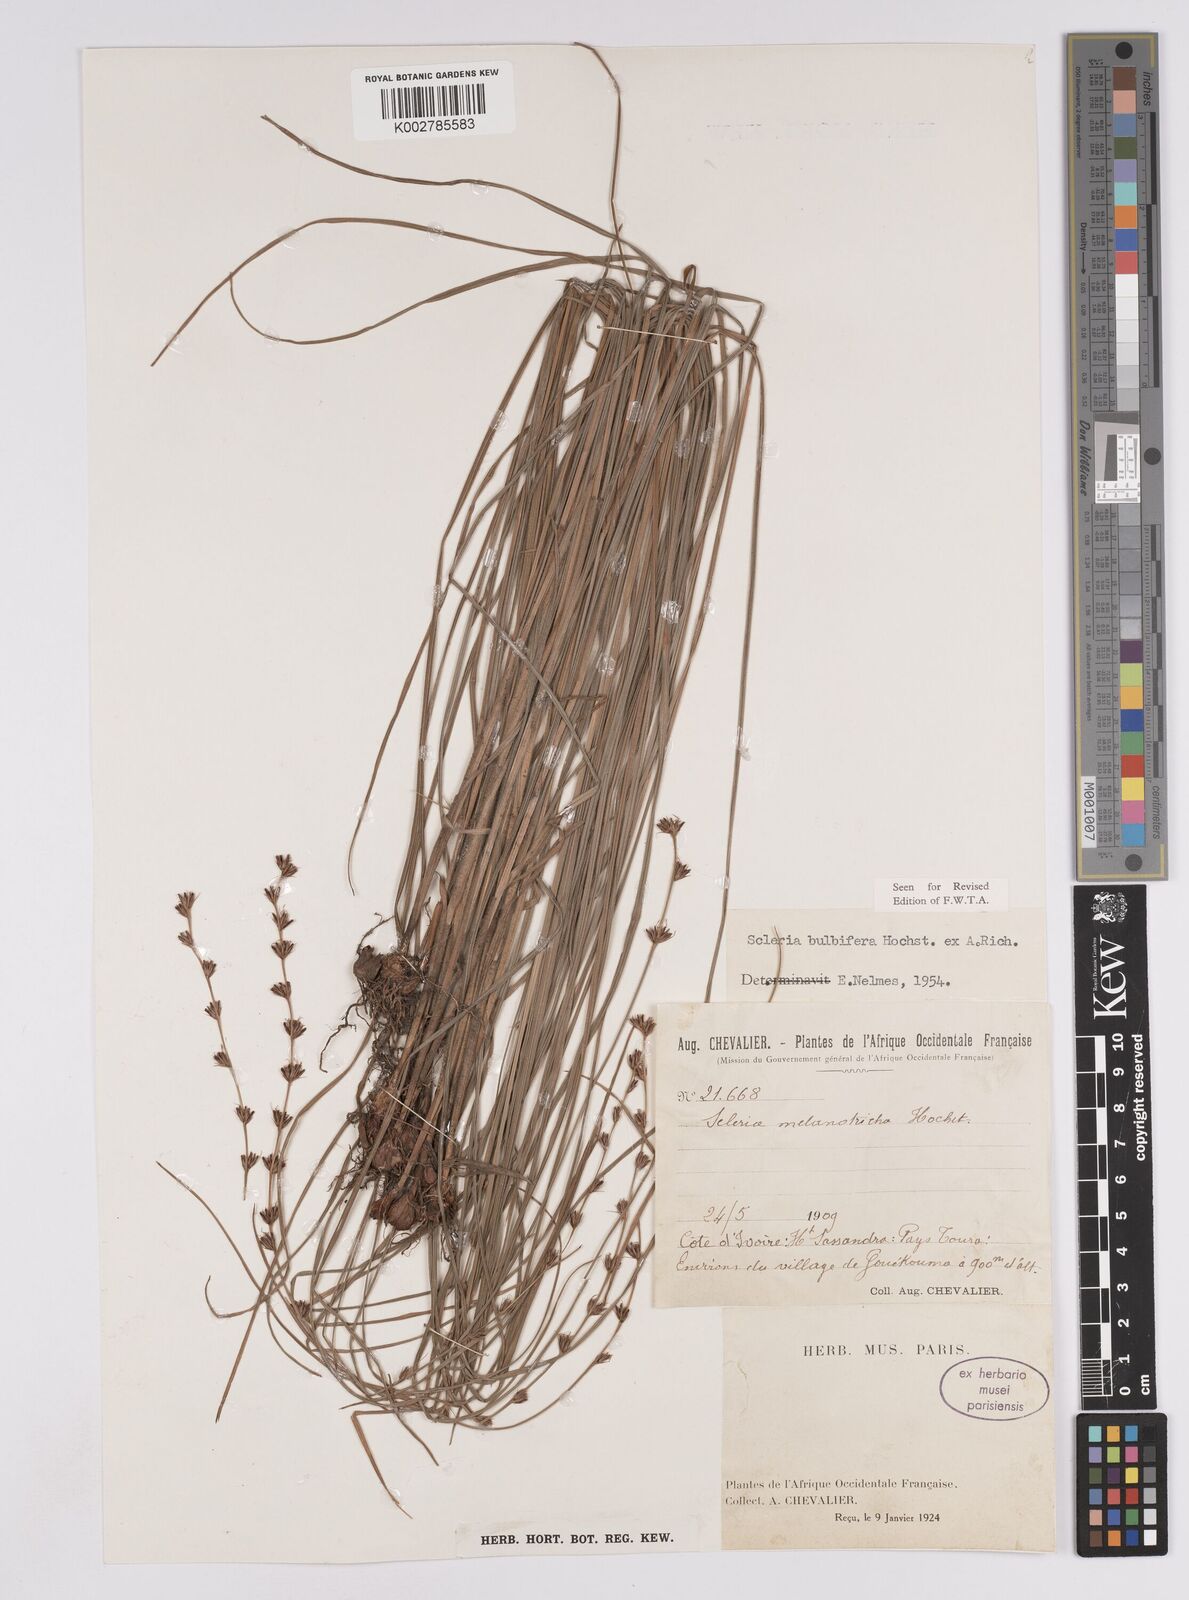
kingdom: Plantae
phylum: Tracheophyta
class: Liliopsida
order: Poales
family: Cyperaceae
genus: Scleria
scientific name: Scleria bulbifera
